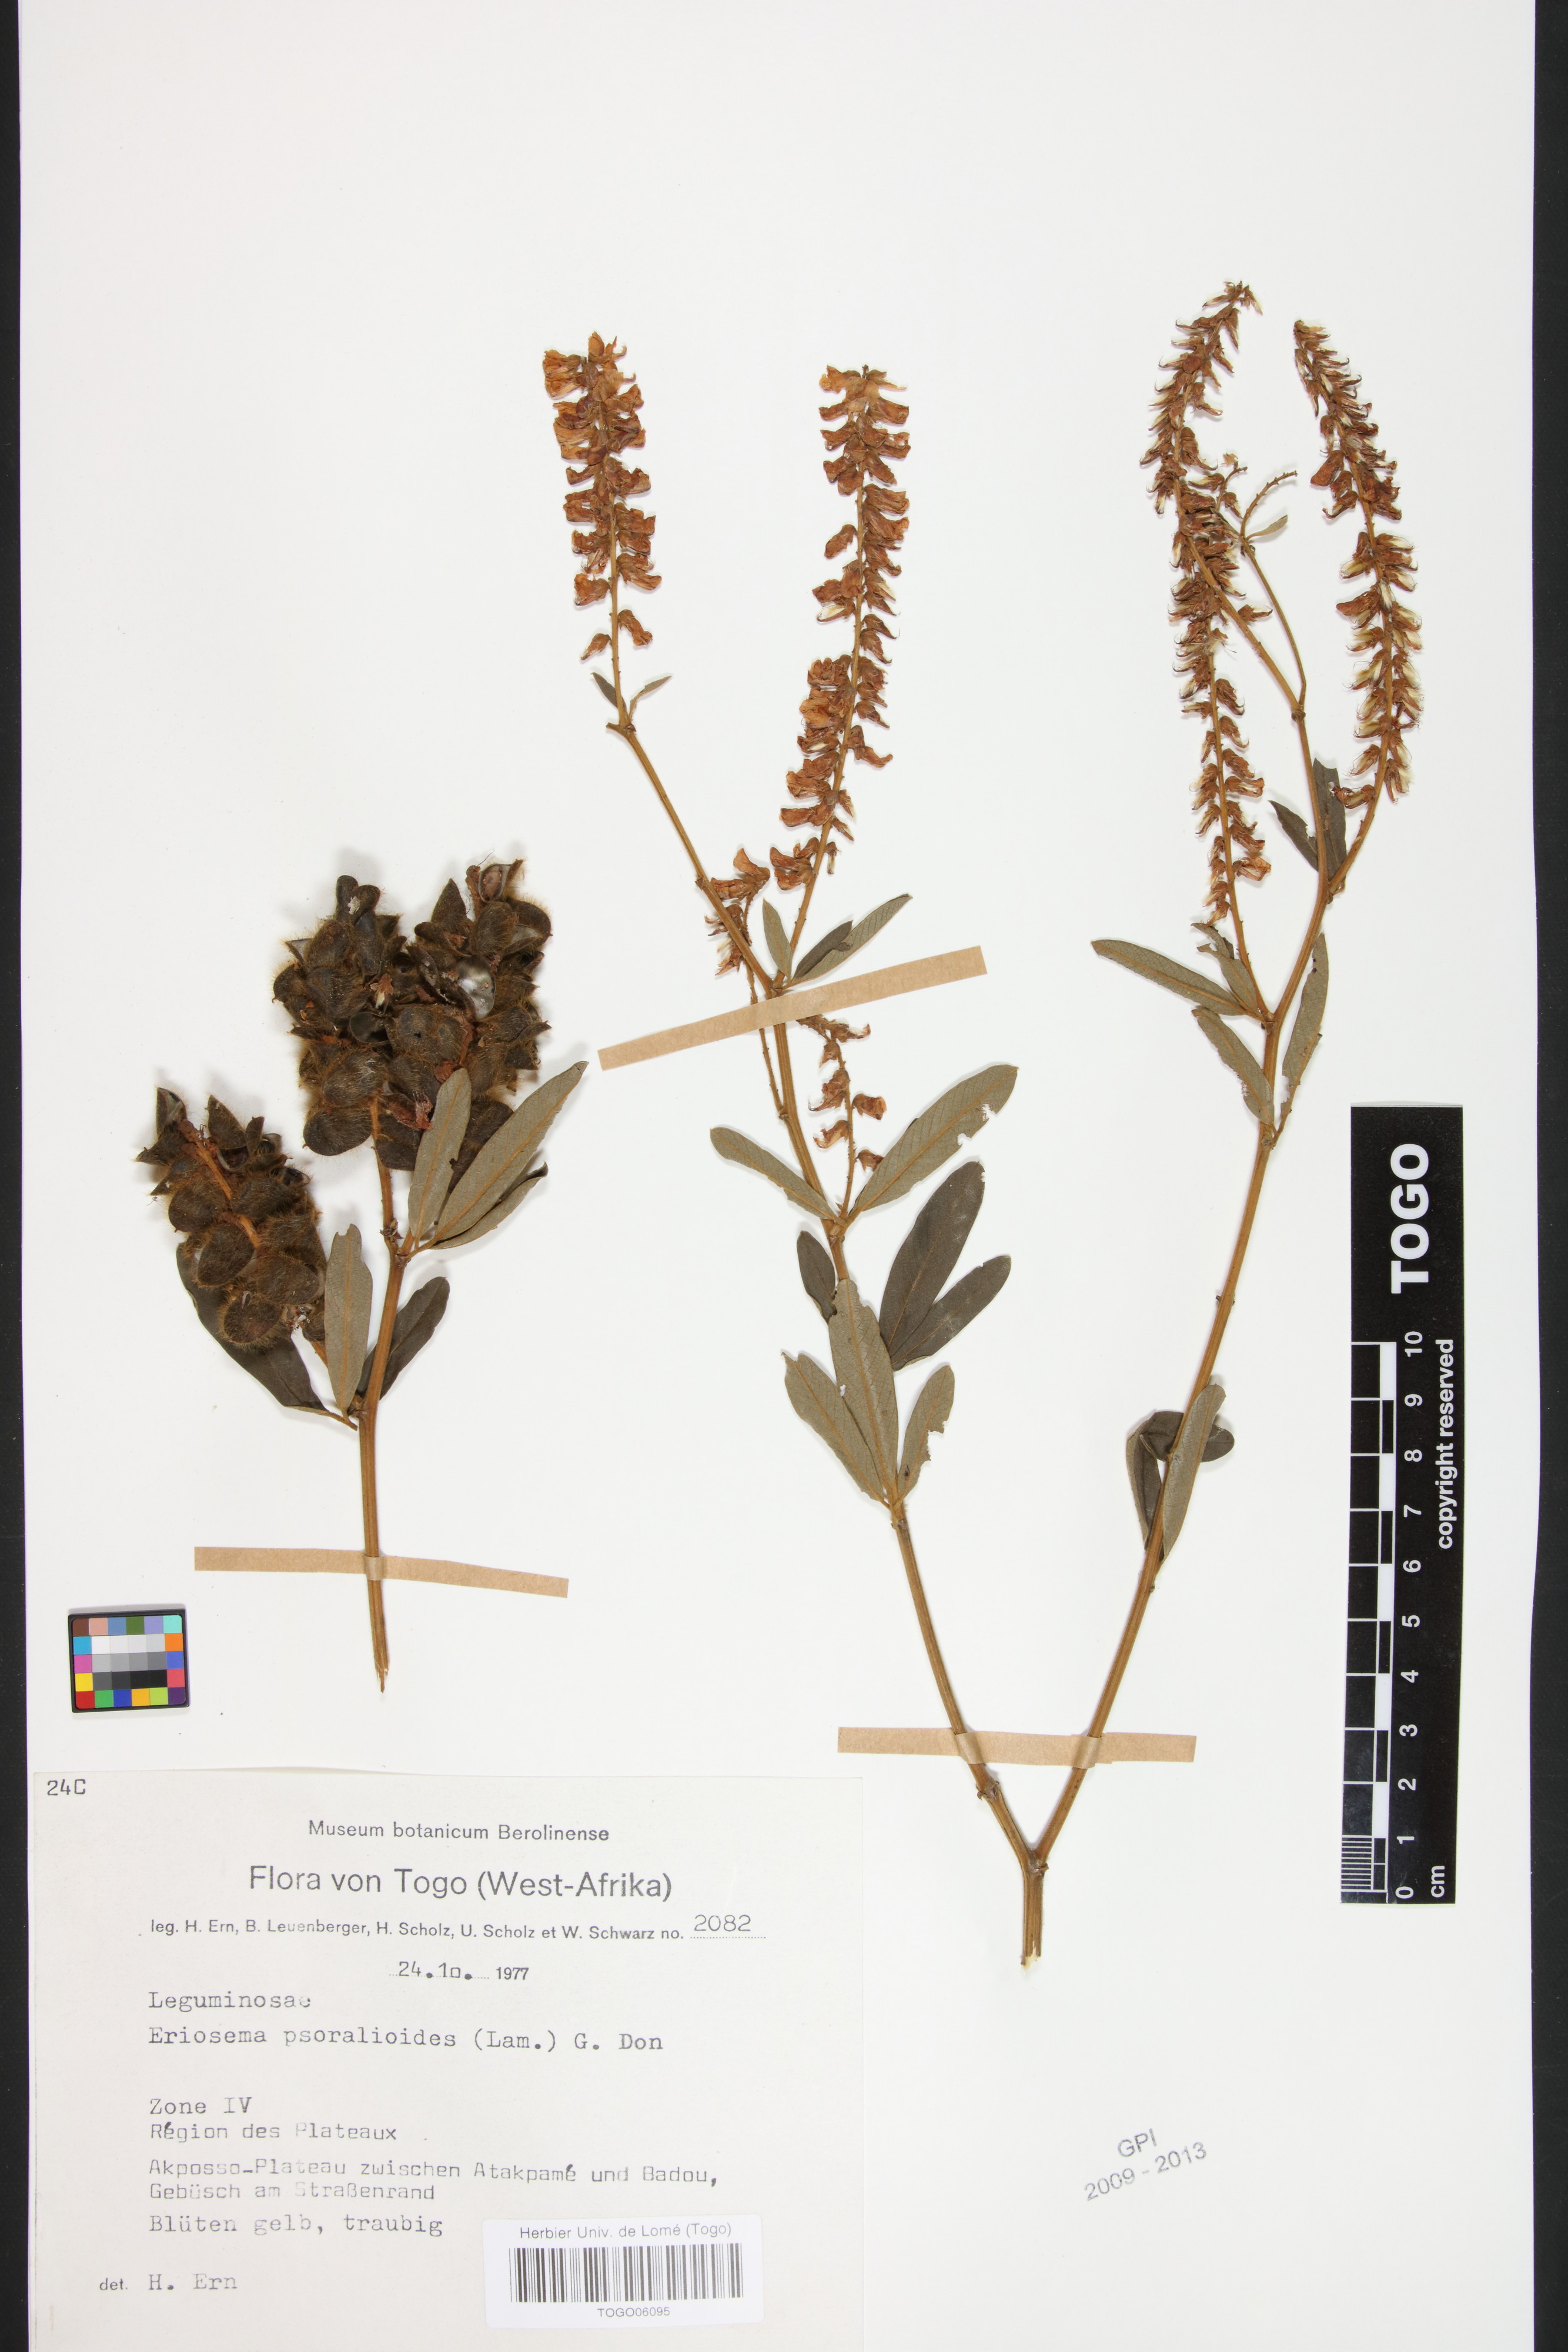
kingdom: Plantae
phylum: Tracheophyta
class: Magnoliopsida
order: Fabales
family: Fabaceae
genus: Eriosema
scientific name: Eriosema psoraleoides
